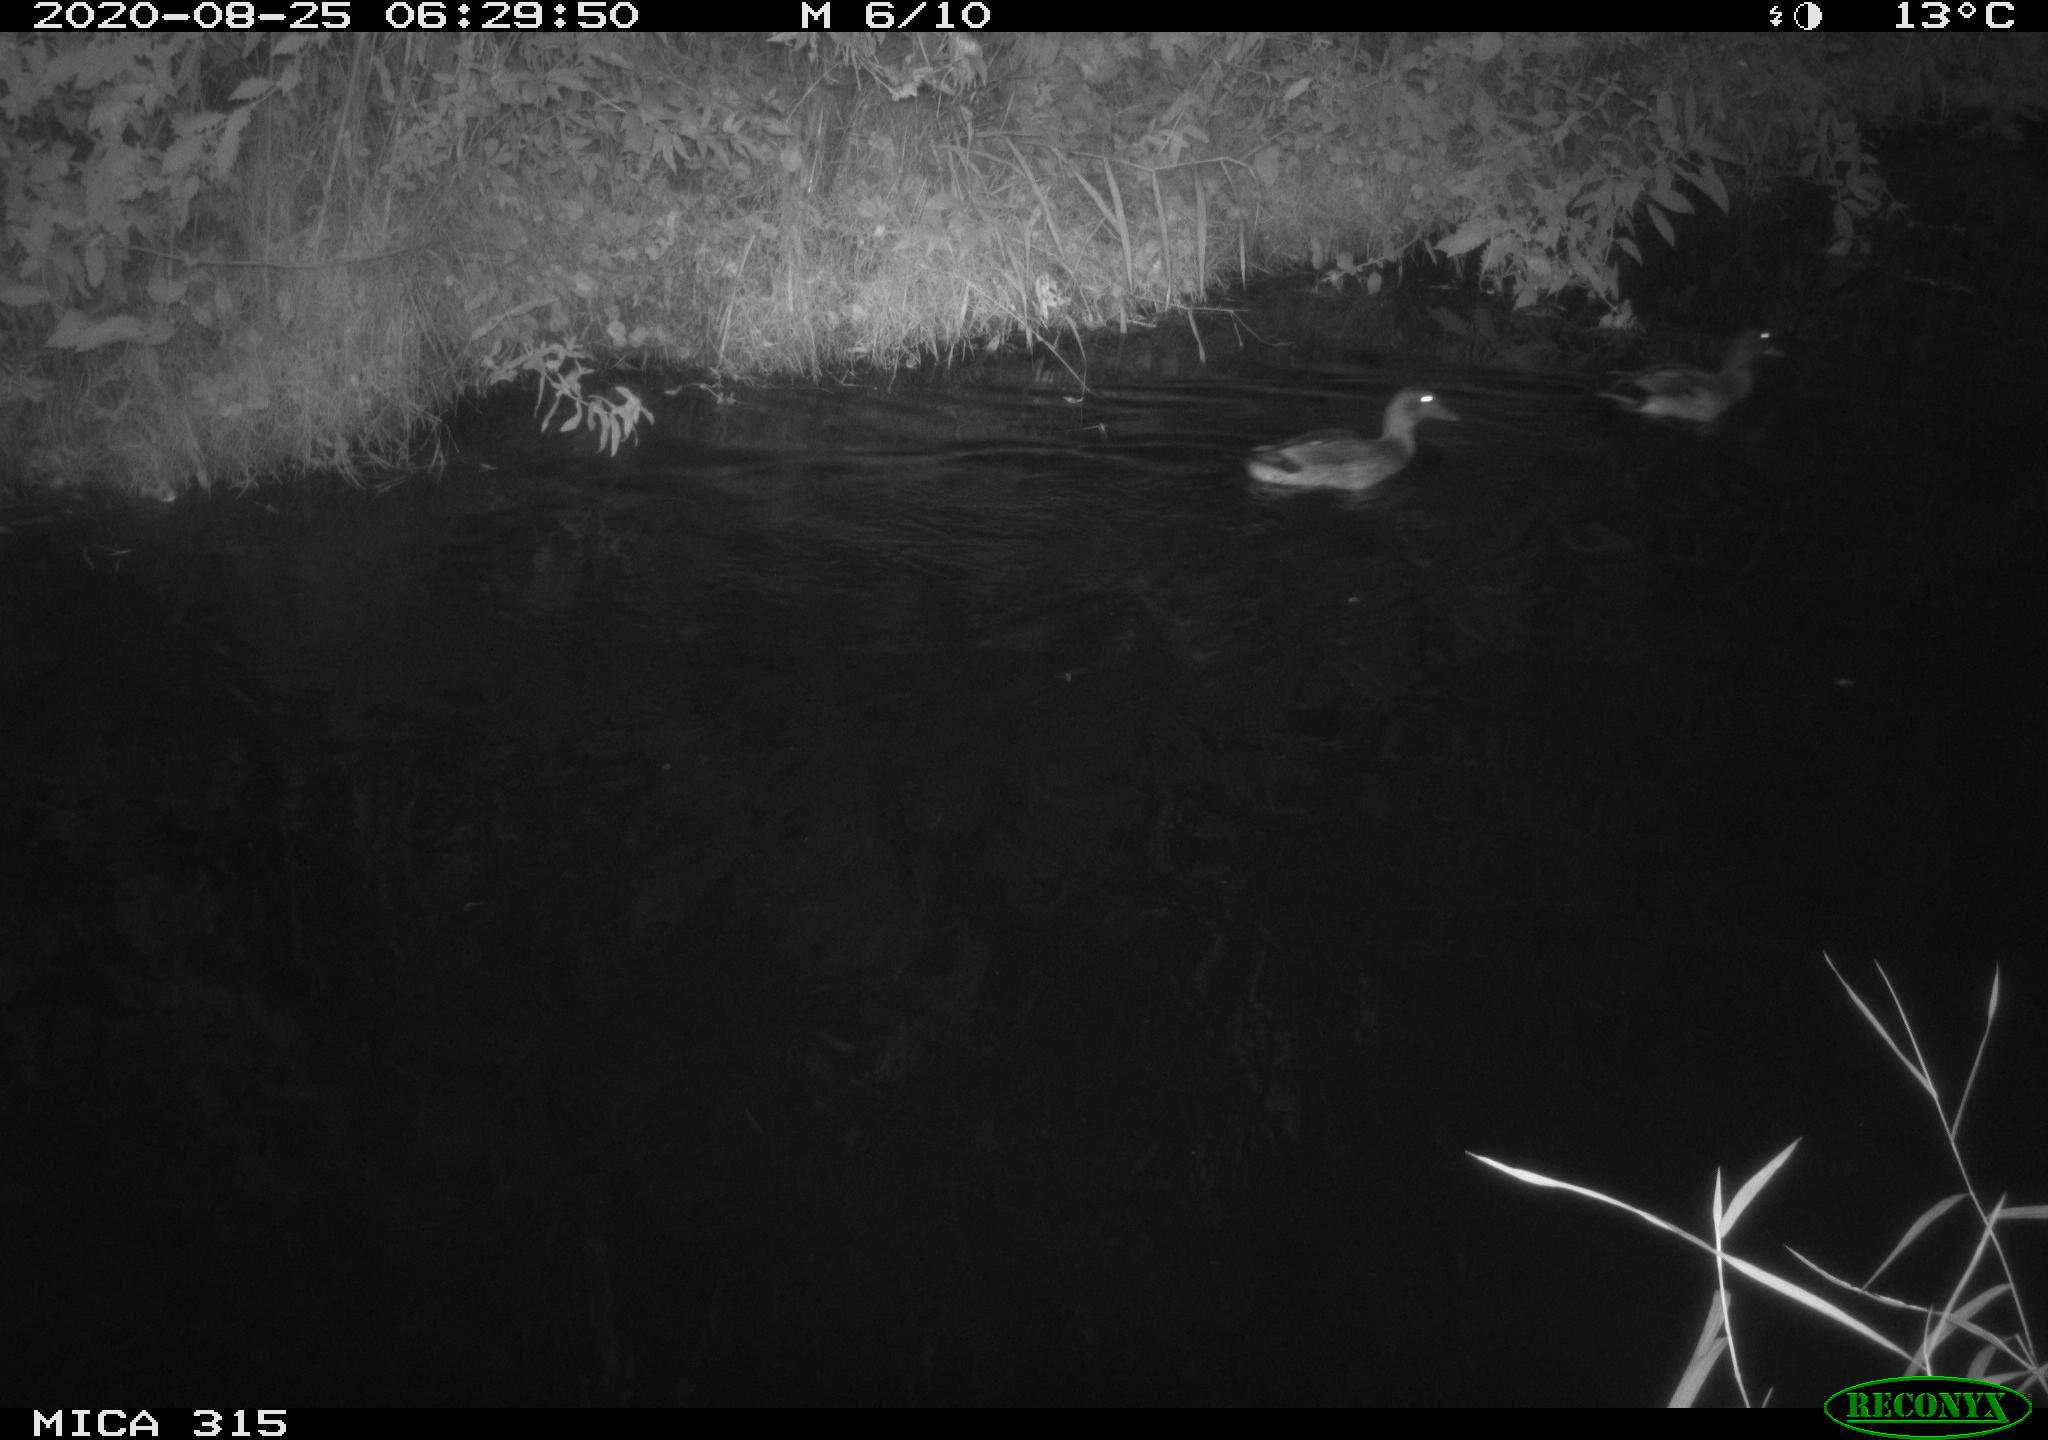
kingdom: Animalia
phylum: Chordata
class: Aves
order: Anseriformes
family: Anatidae
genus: Anas
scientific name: Anas platyrhynchos
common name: Mallard
